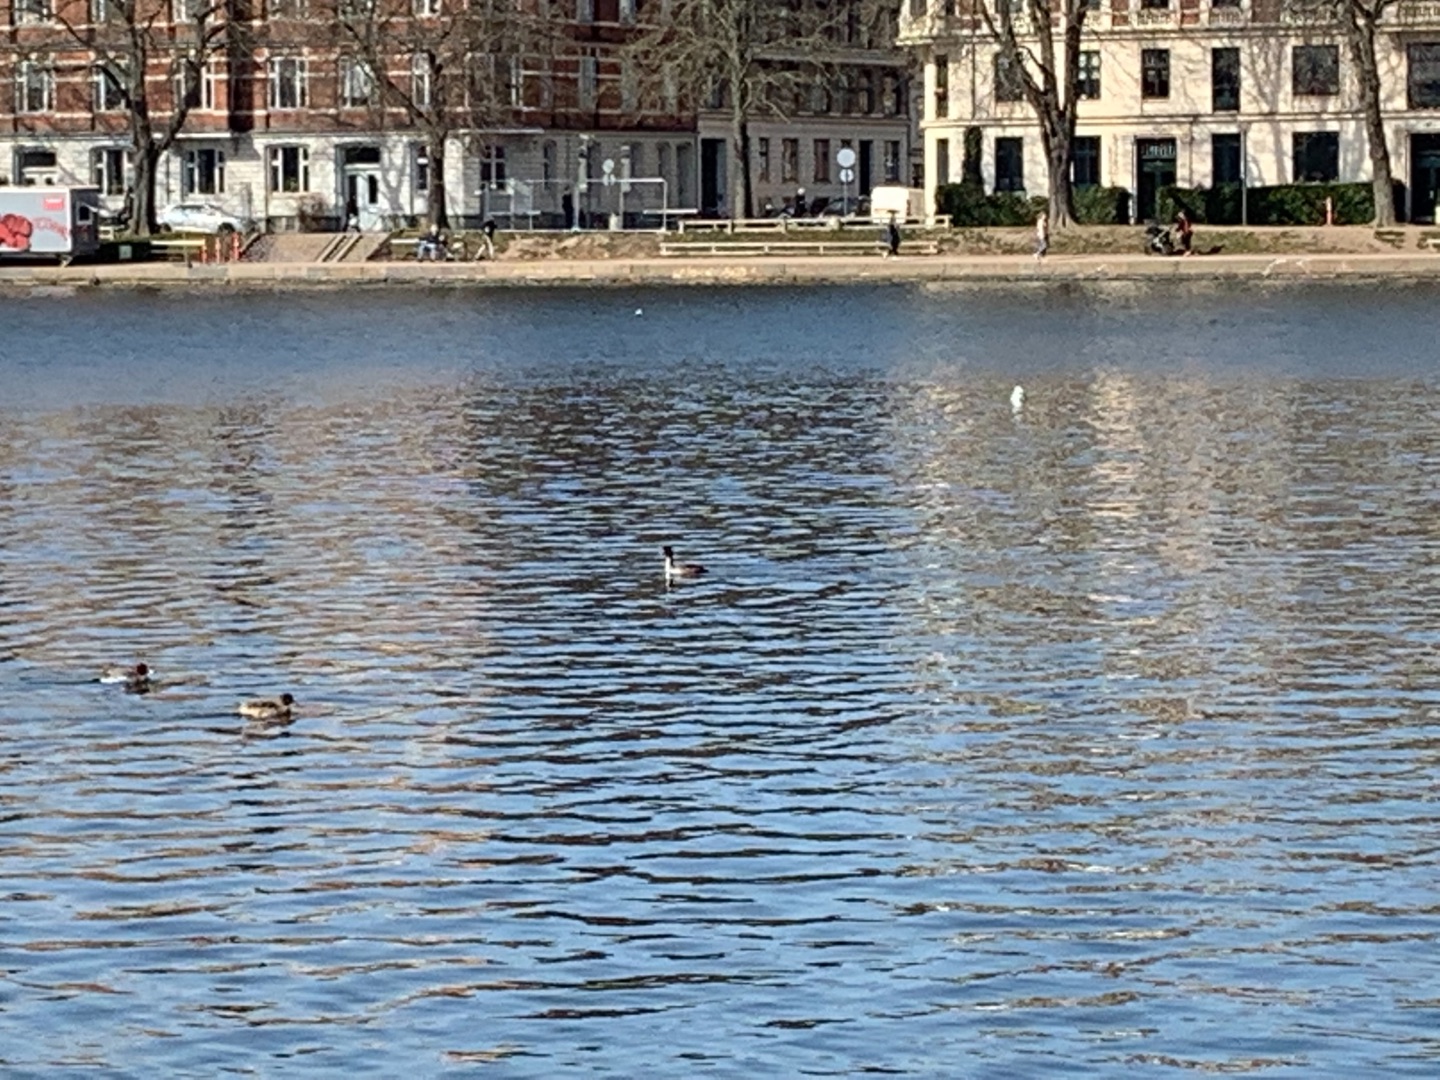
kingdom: Animalia
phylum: Chordata
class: Aves
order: Podicipediformes
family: Podicipedidae
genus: Podiceps
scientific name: Podiceps cristatus
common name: Toppet lappedykker
